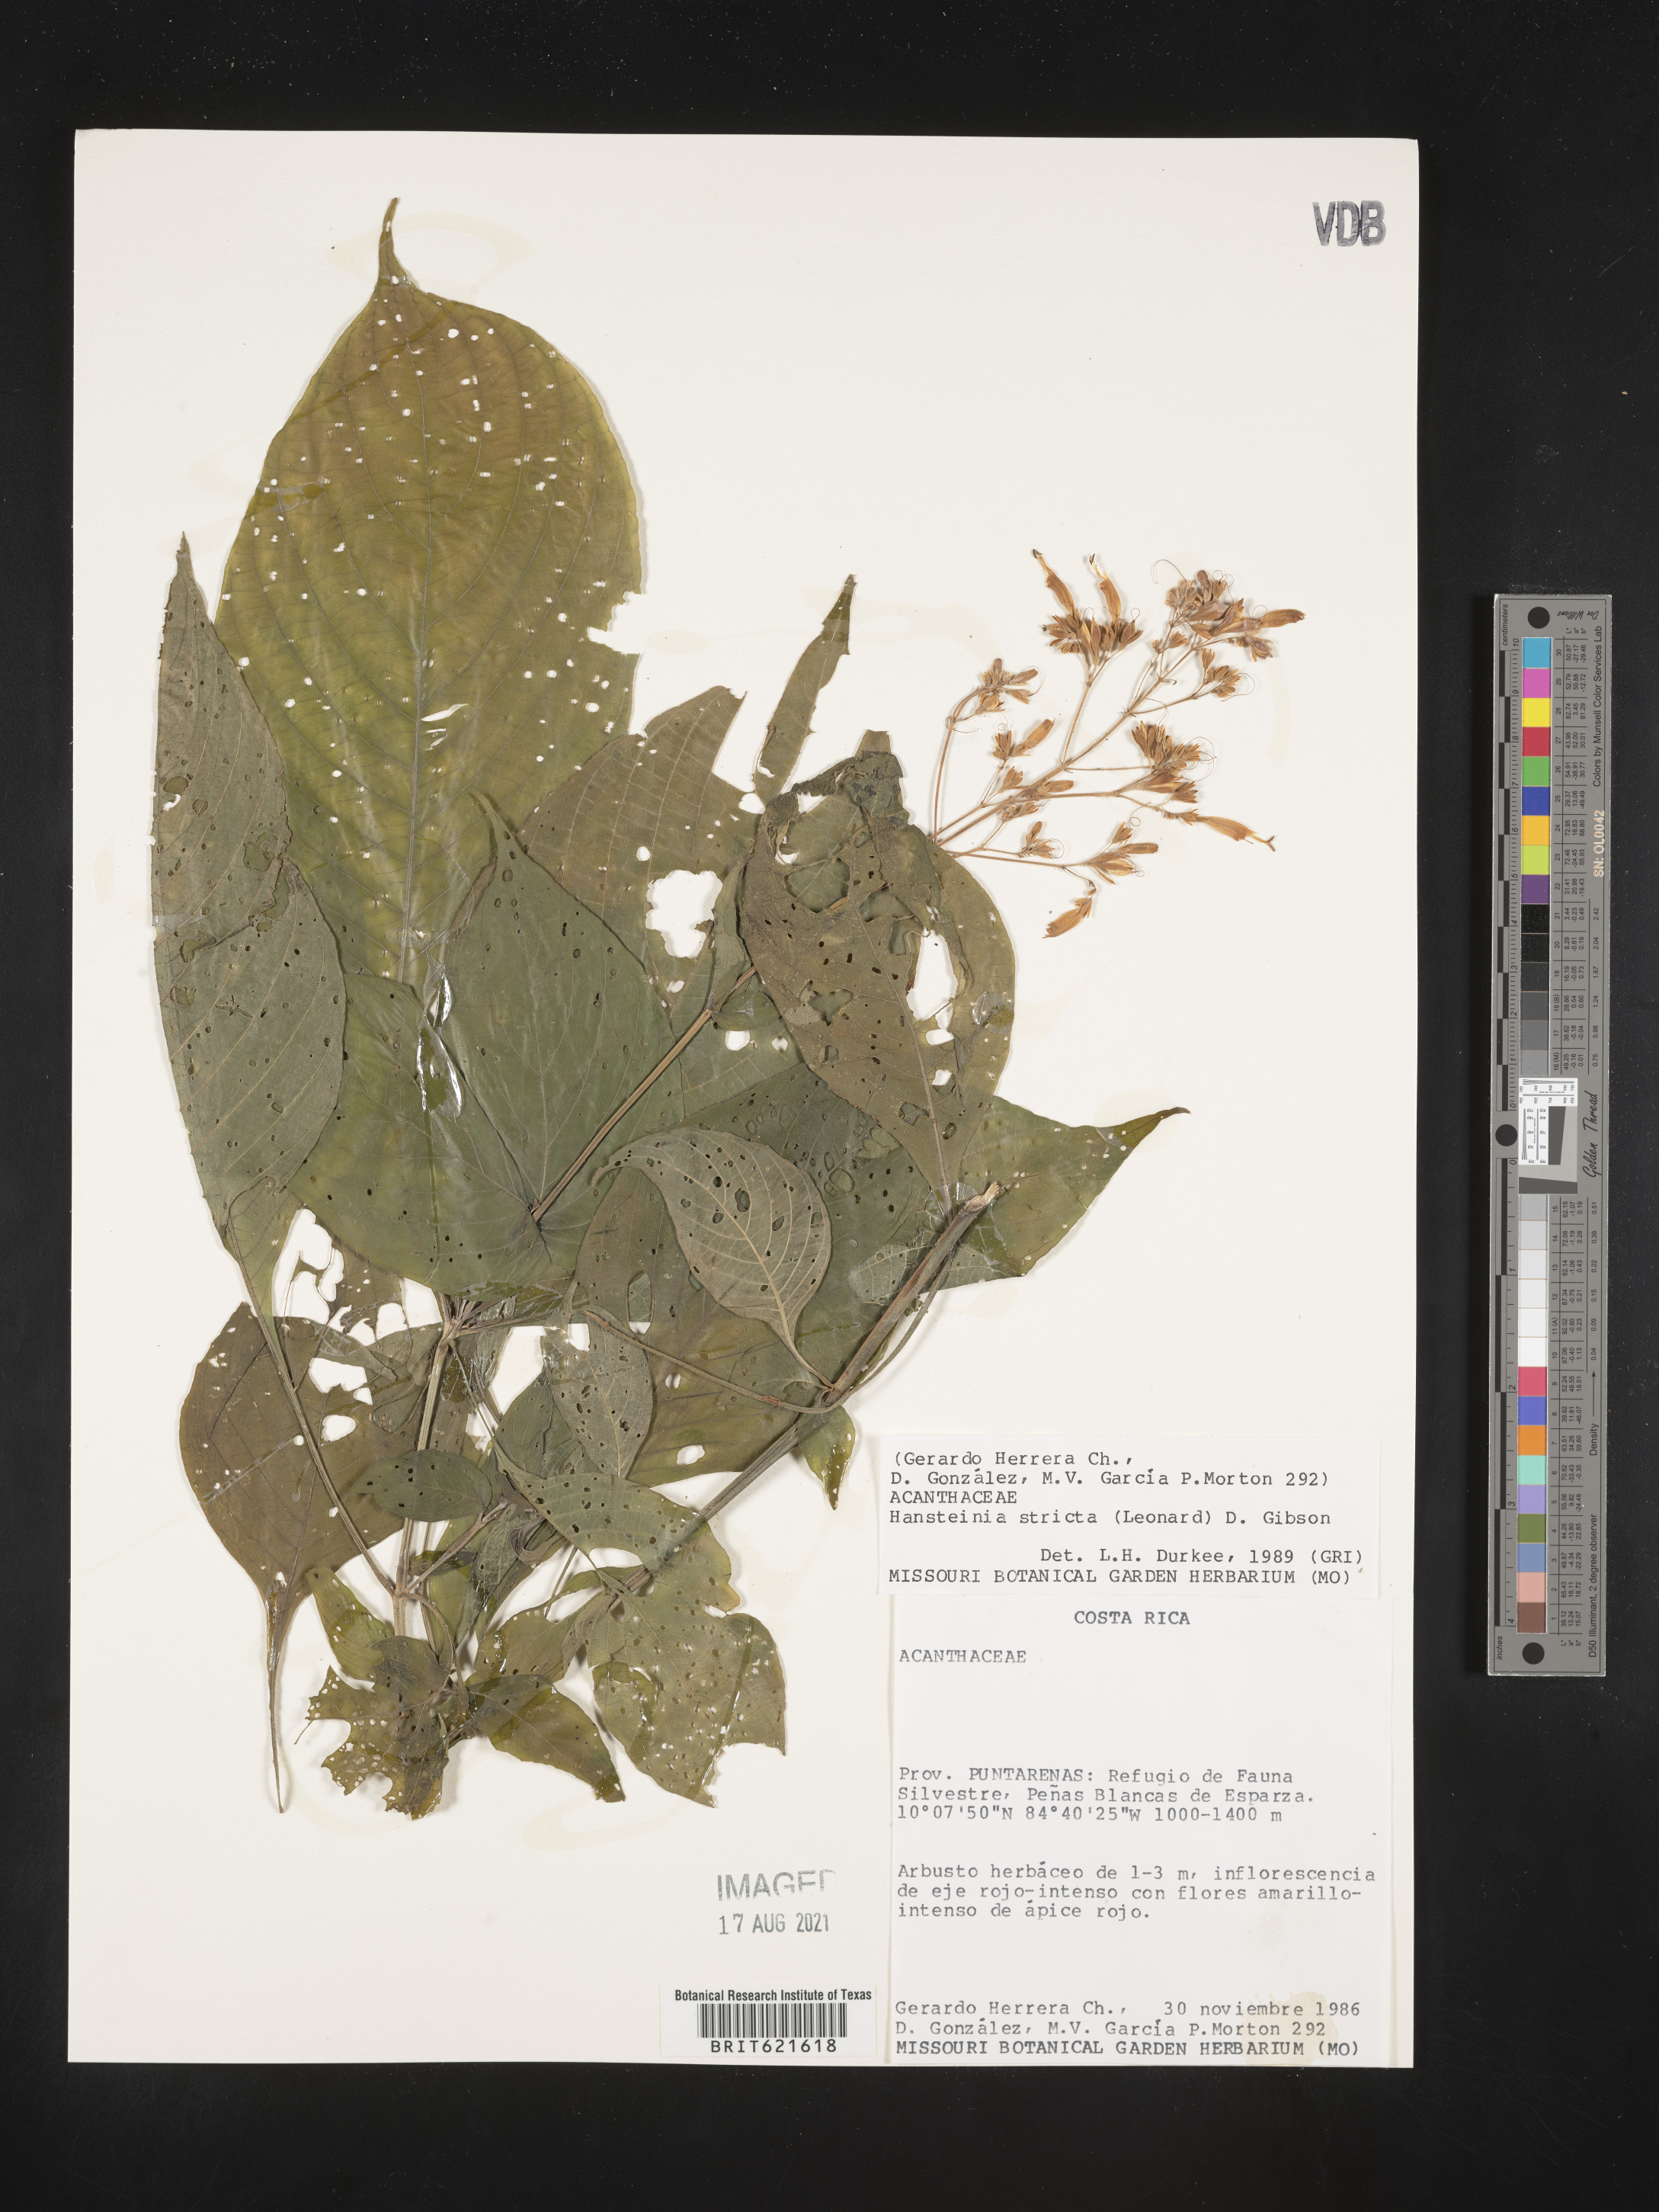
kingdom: Plantae
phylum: Tracheophyta
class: Magnoliopsida
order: Lamiales
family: Acanthaceae
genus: Stenostephanus
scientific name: Stenostephanus strictus
